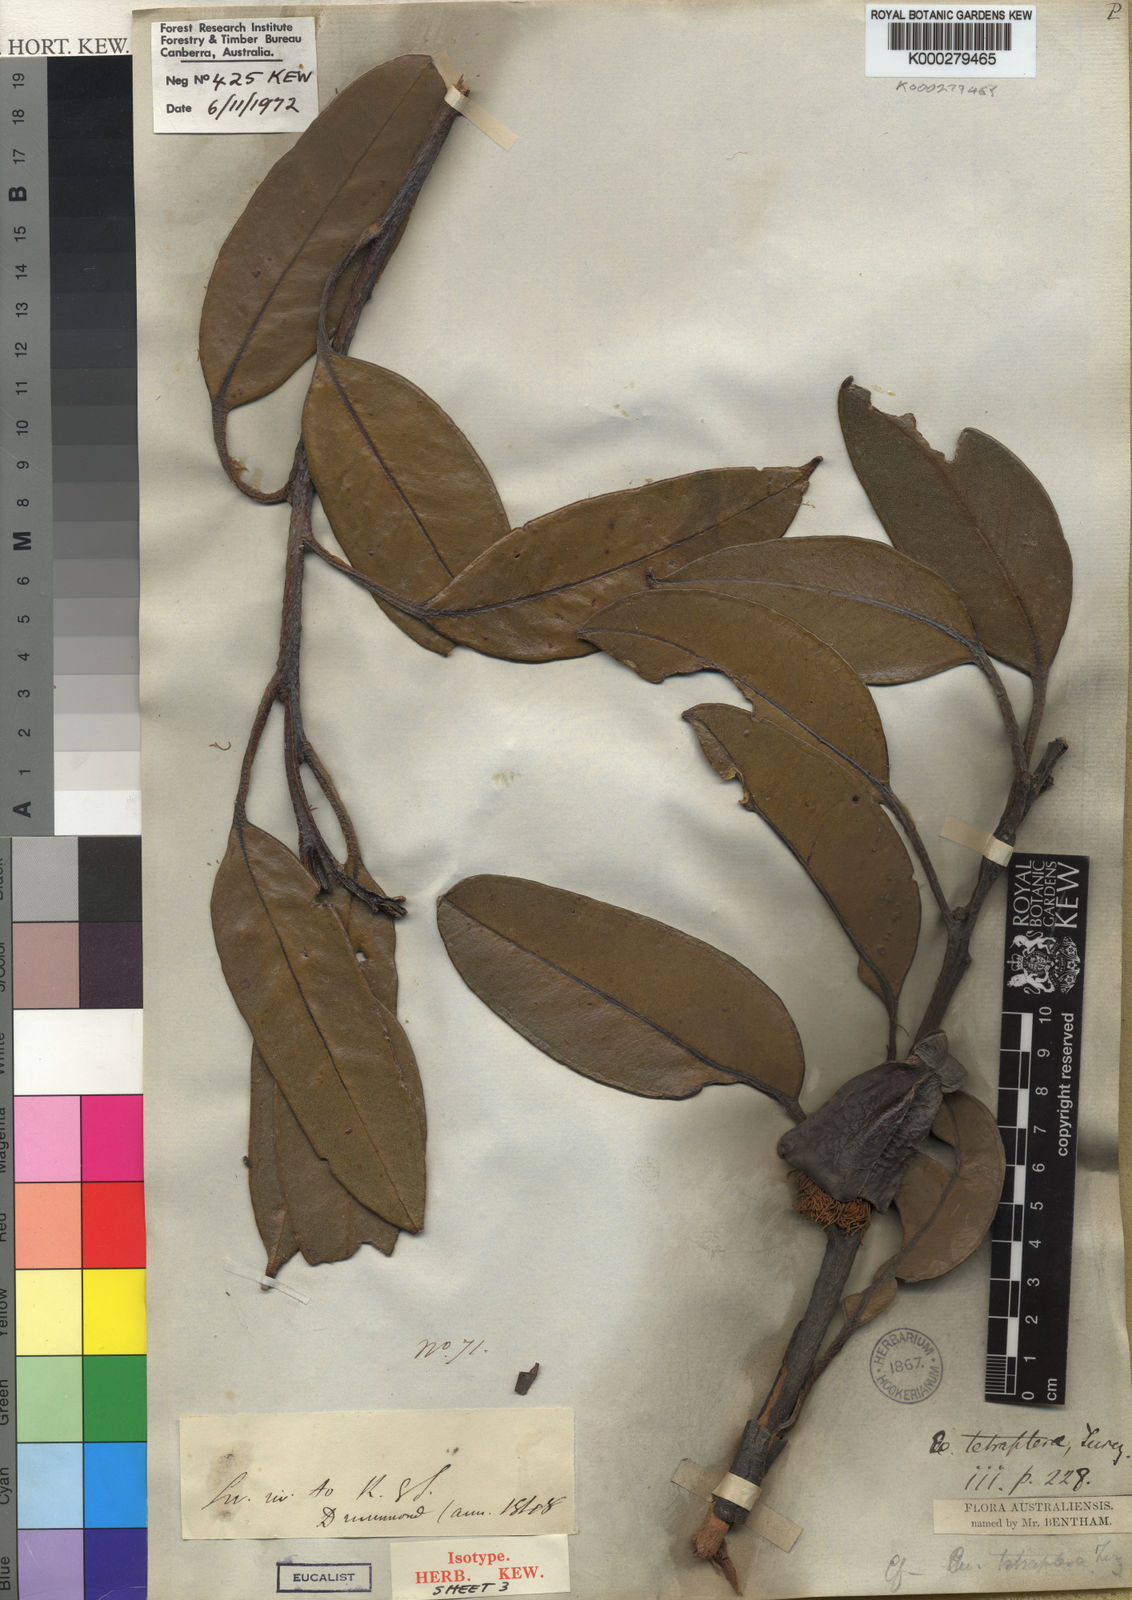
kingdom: Plantae
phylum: Tracheophyta
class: Magnoliopsida
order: Myrtales
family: Myrtaceae
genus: Eucalyptus
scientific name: Eucalyptus tetraptera
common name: Four-wing mallee
